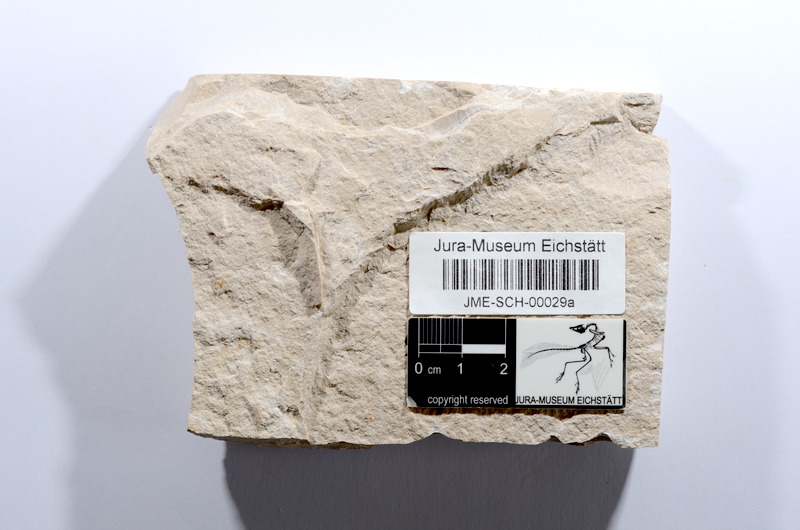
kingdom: Animalia
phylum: Chordata
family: Ascalaboidae
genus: Tharsis
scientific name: Tharsis dubius
